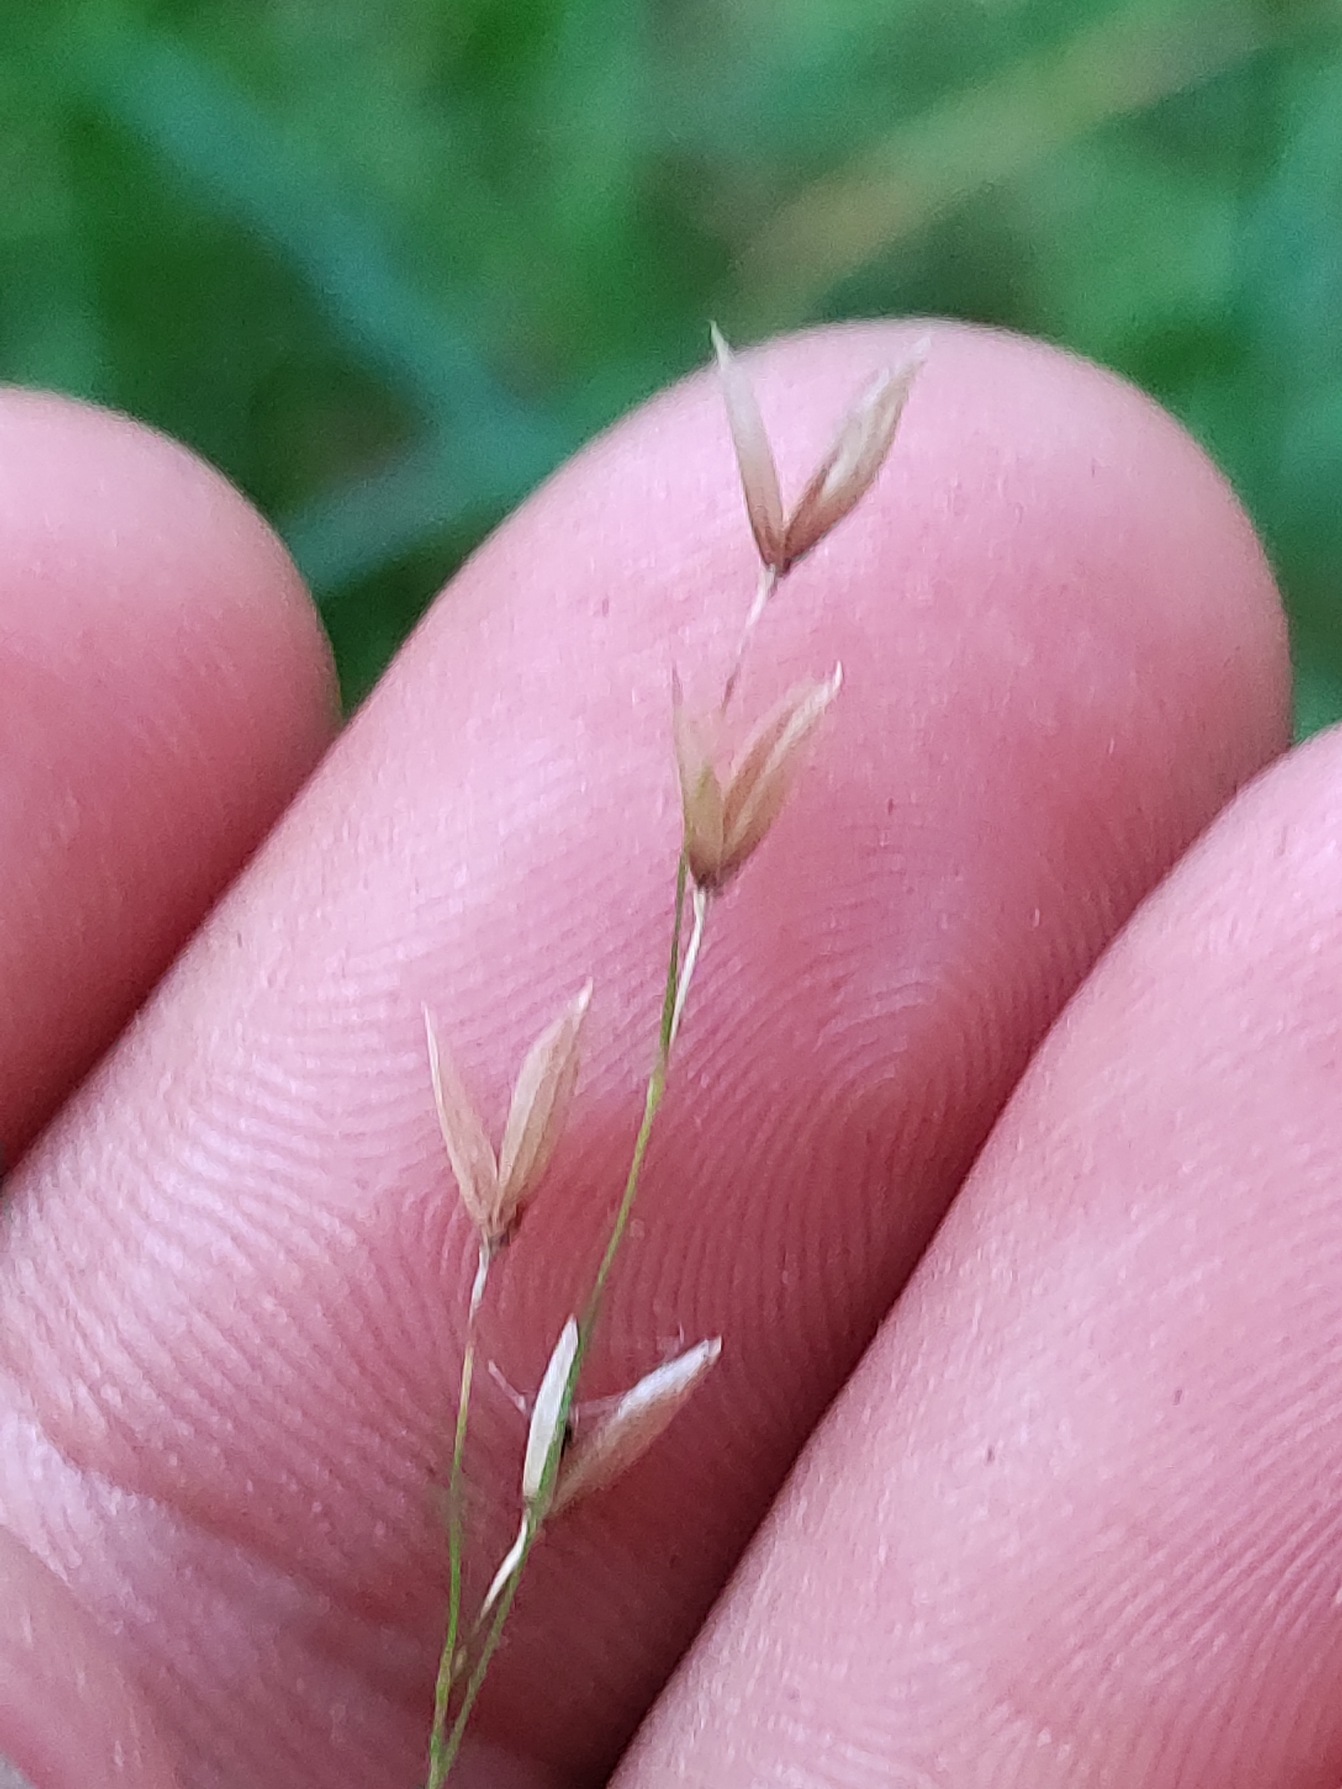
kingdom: Plantae
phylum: Tracheophyta
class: Liliopsida
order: Poales
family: Poaceae
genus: Melica
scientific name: Melica uniflora
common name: Enblomstret flitteraks
